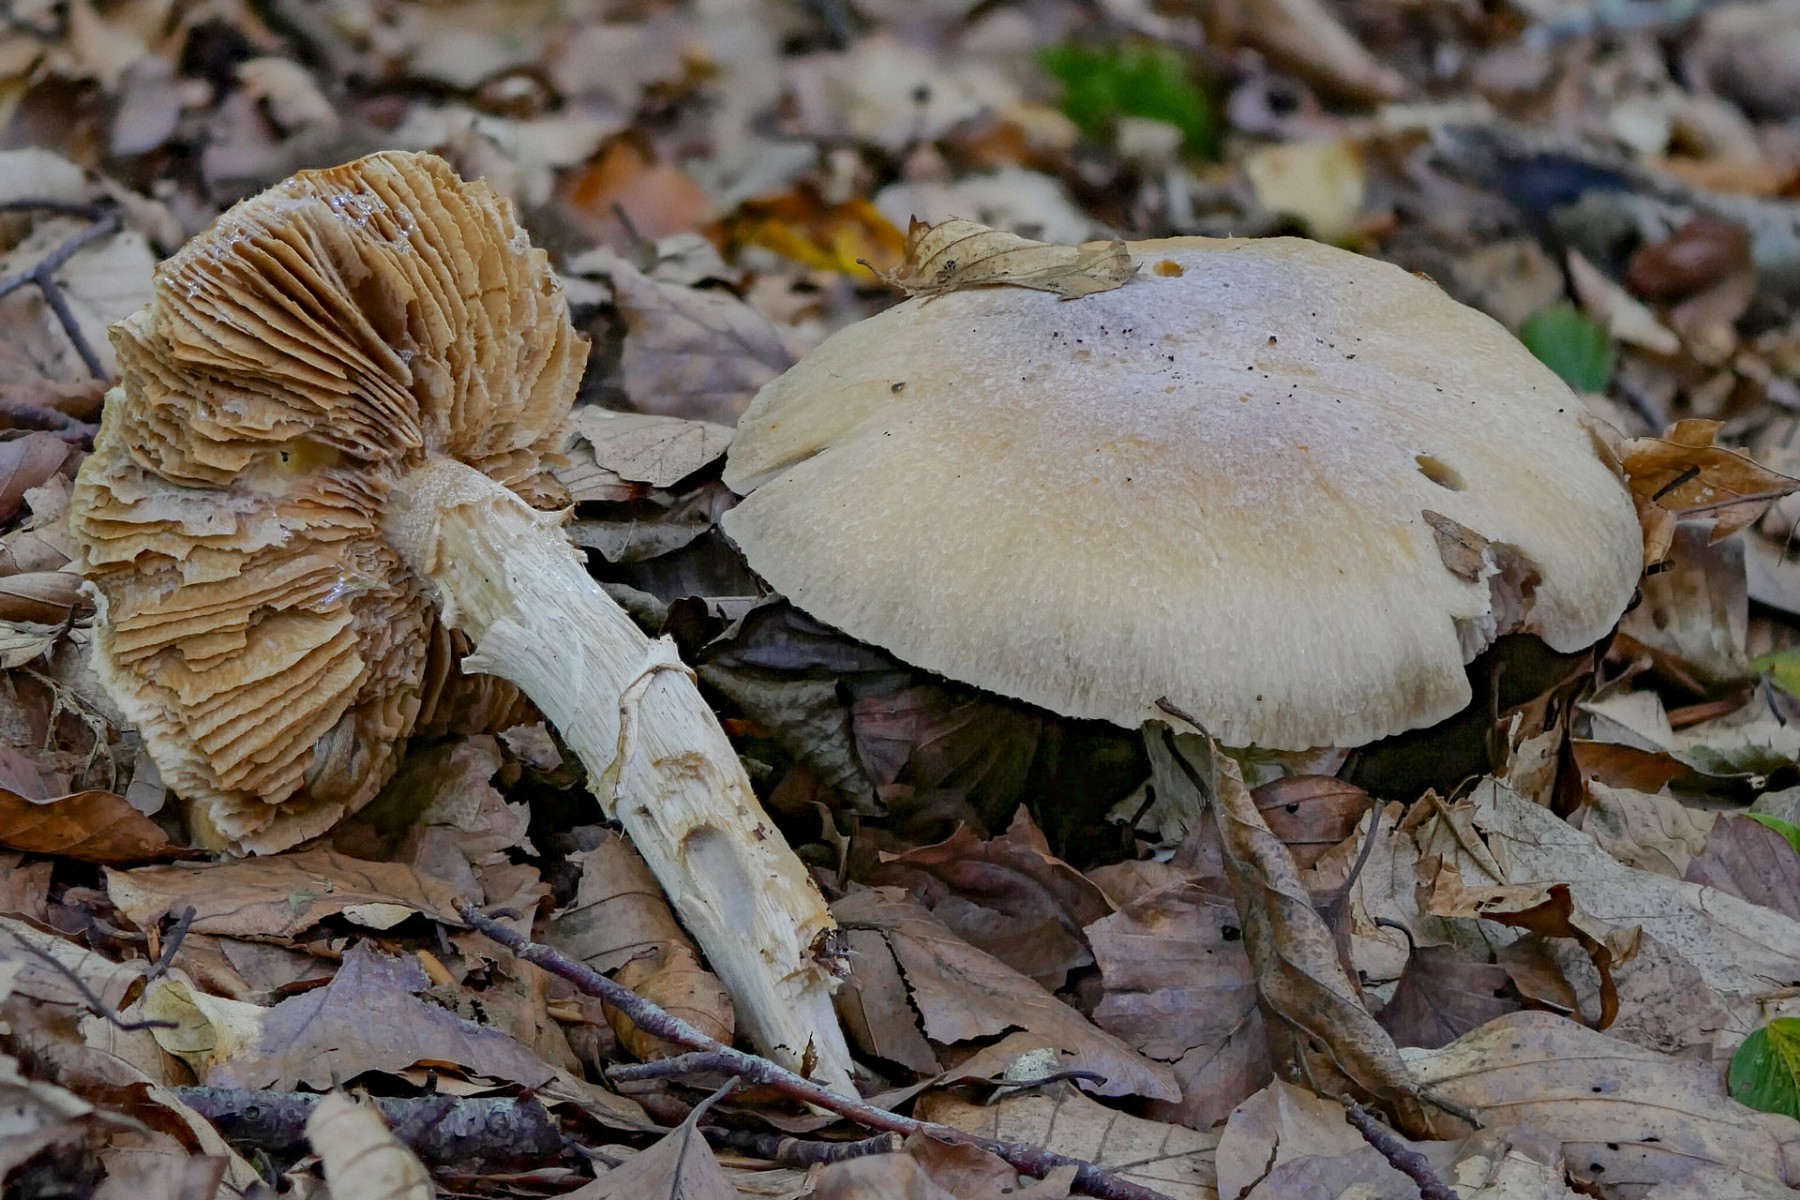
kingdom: Fungi
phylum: Basidiomycota
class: Agaricomycetes
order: Agaricales
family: Cortinariaceae
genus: Cortinarius
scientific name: Cortinarius caperatus
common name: klidhat
